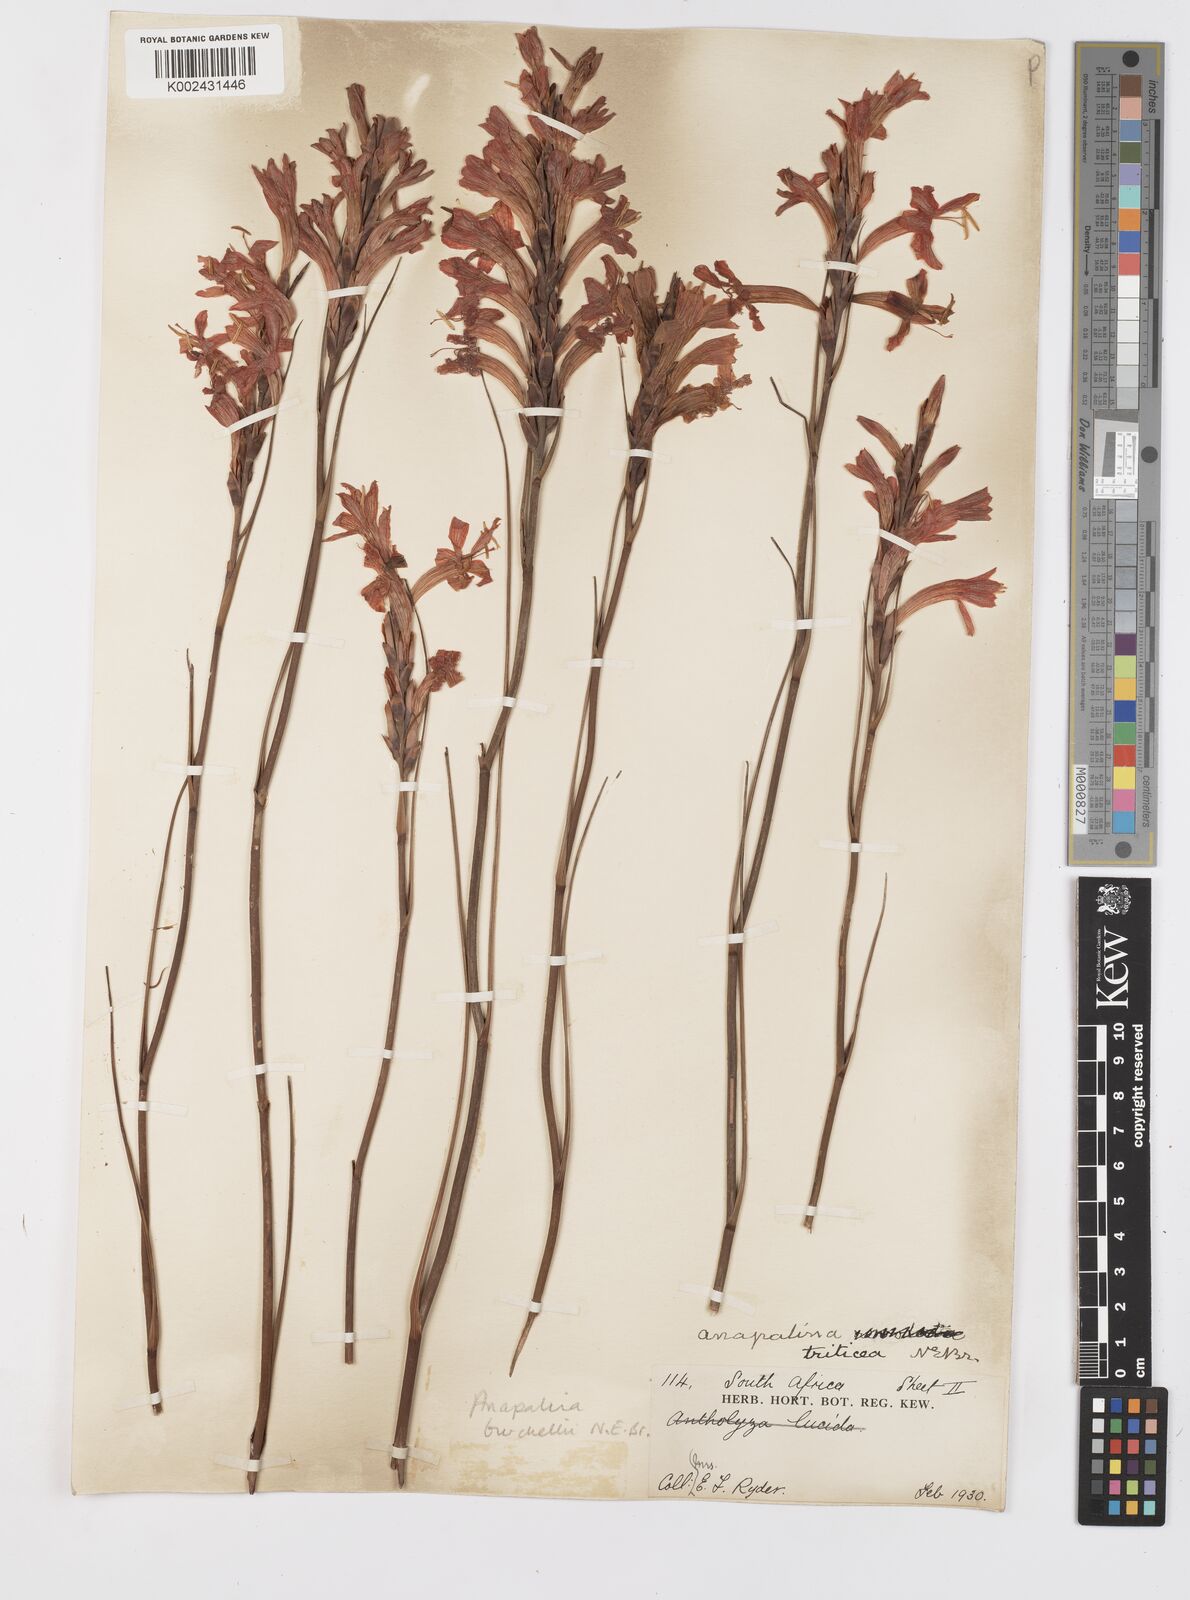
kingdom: Plantae
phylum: Tracheophyta
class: Liliopsida
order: Asparagales
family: Iridaceae
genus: Tritoniopsis
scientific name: Tritoniopsis triticea
